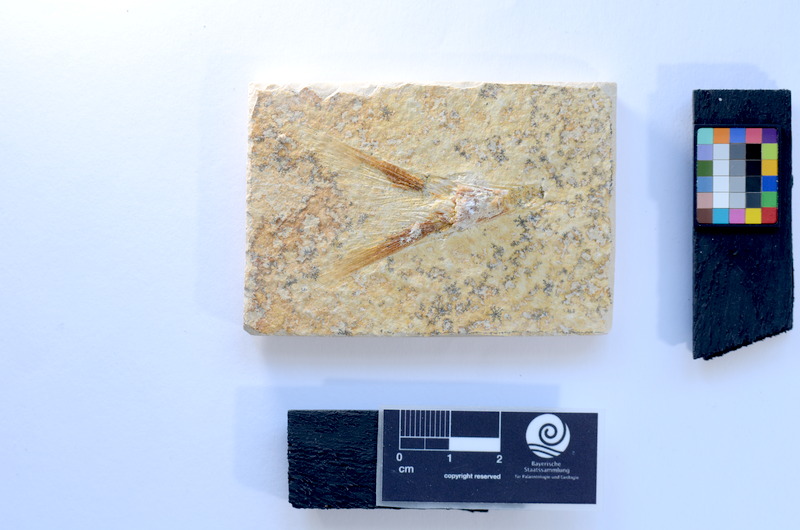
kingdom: Animalia
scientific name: Animalia
